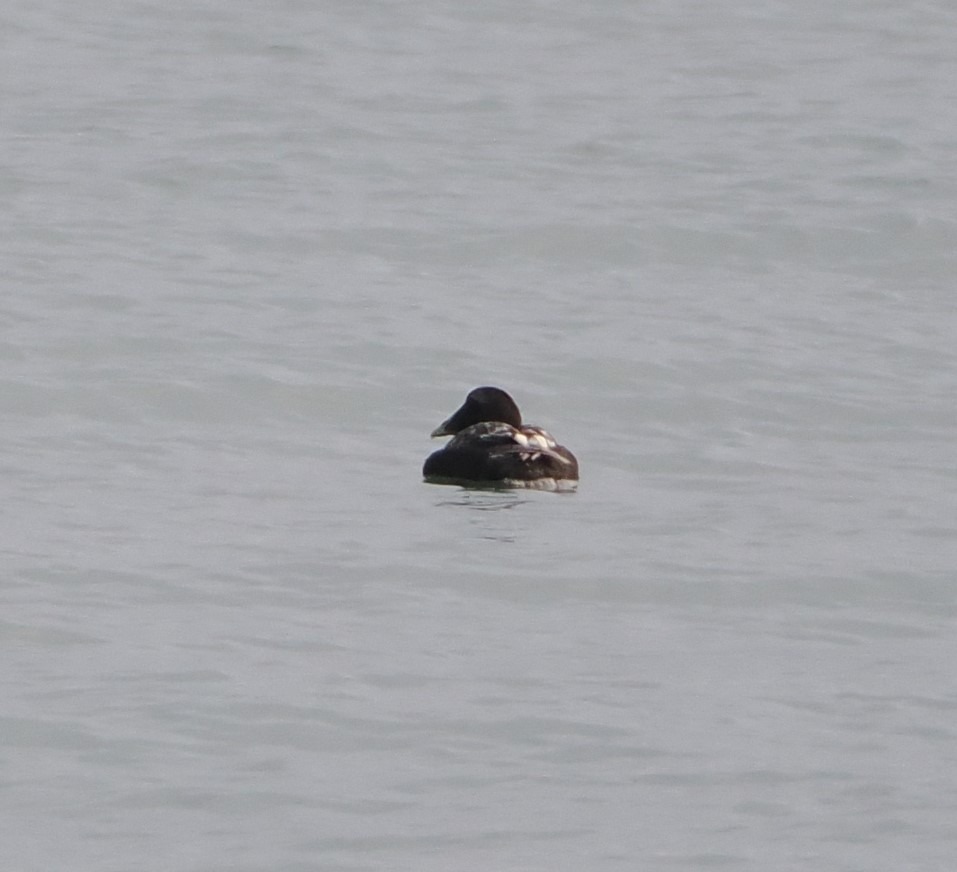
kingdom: Animalia
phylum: Chordata
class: Aves
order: Anseriformes
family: Anatidae
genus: Somateria
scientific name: Somateria mollissima
